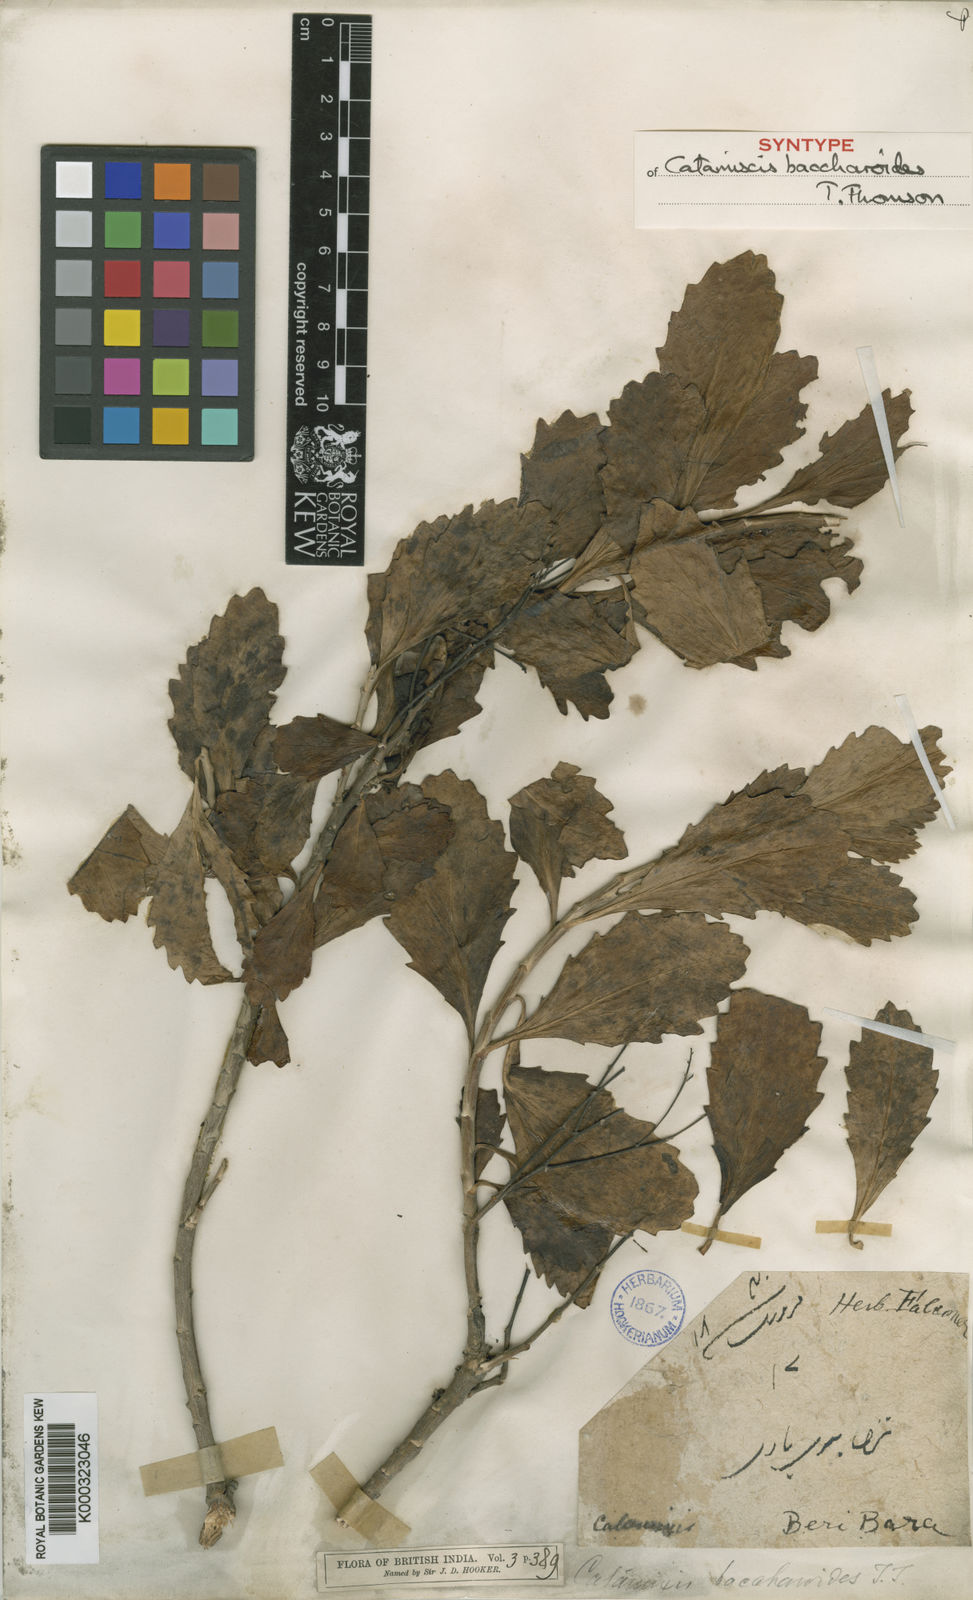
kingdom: Plantae
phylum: Tracheophyta
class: Magnoliopsida
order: Asterales
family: Asteraceae
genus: Catamixis
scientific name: Catamixis baccharoides
